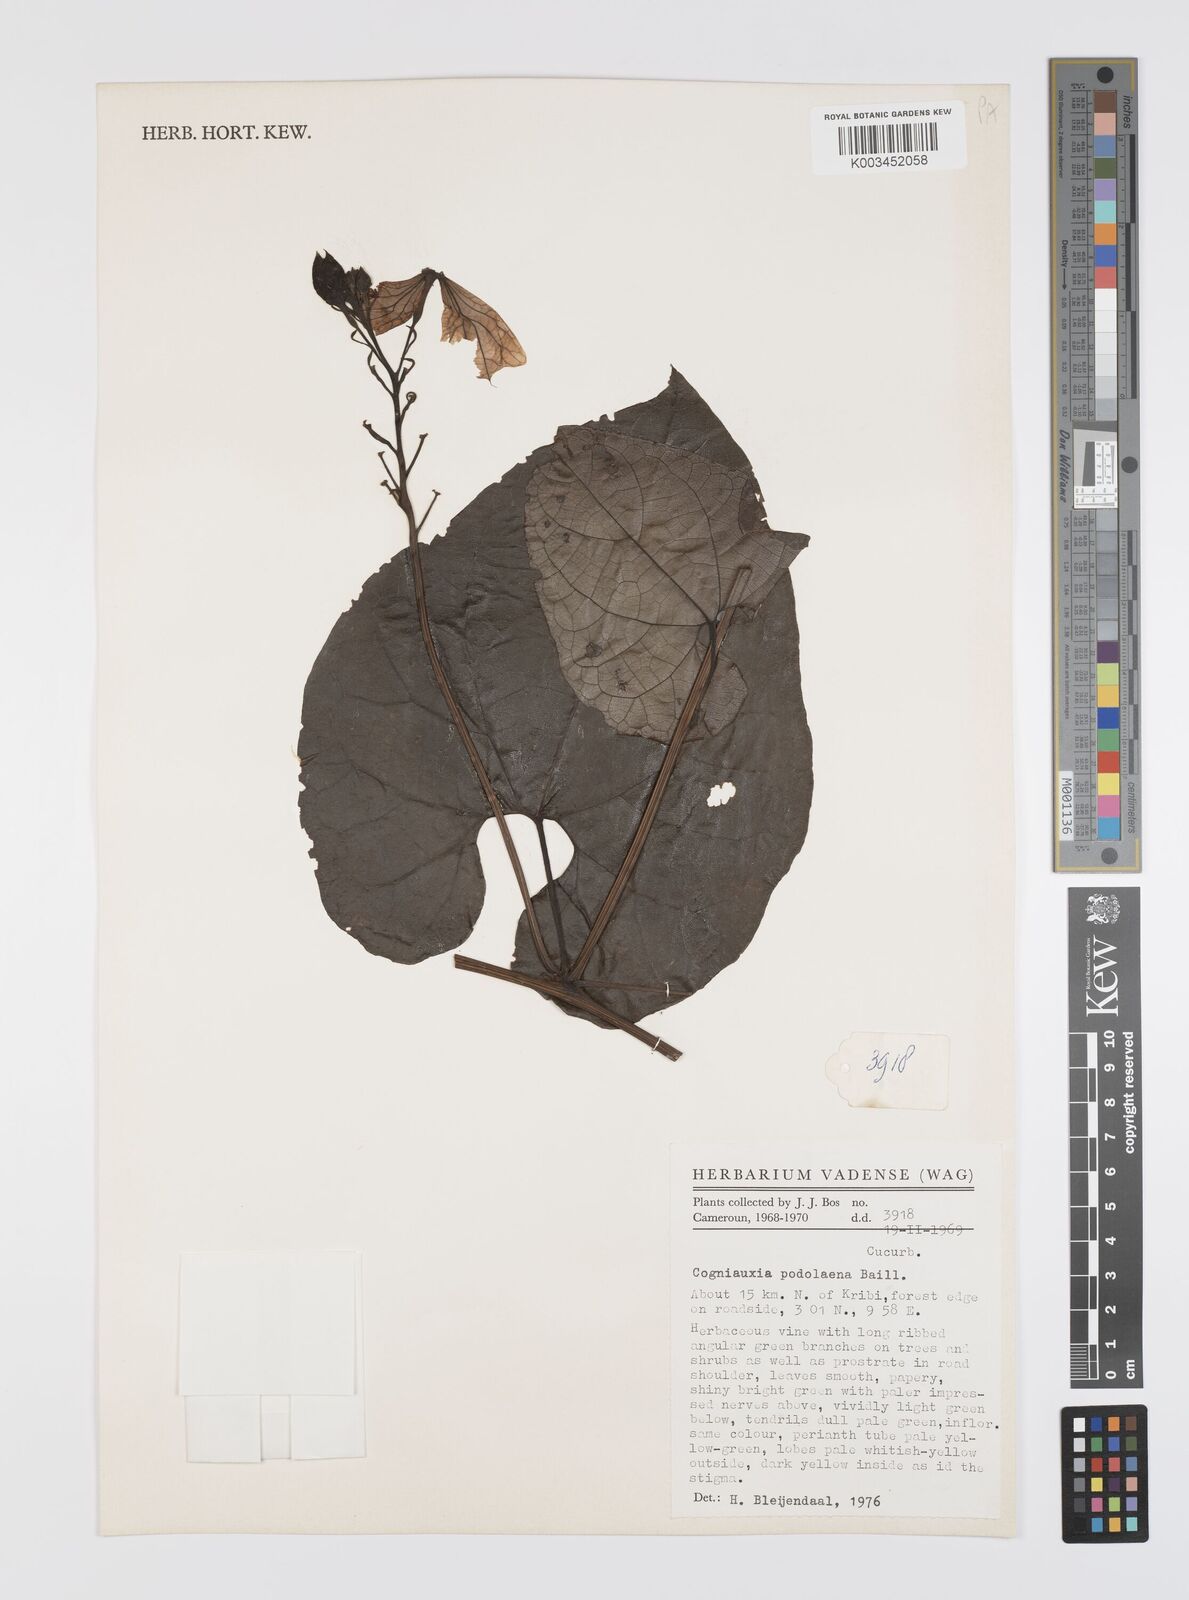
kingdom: Plantae
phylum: Tracheophyta
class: Magnoliopsida
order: Cucurbitales
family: Cucurbitaceae
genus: Cogniauxia
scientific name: Cogniauxia podolaena
